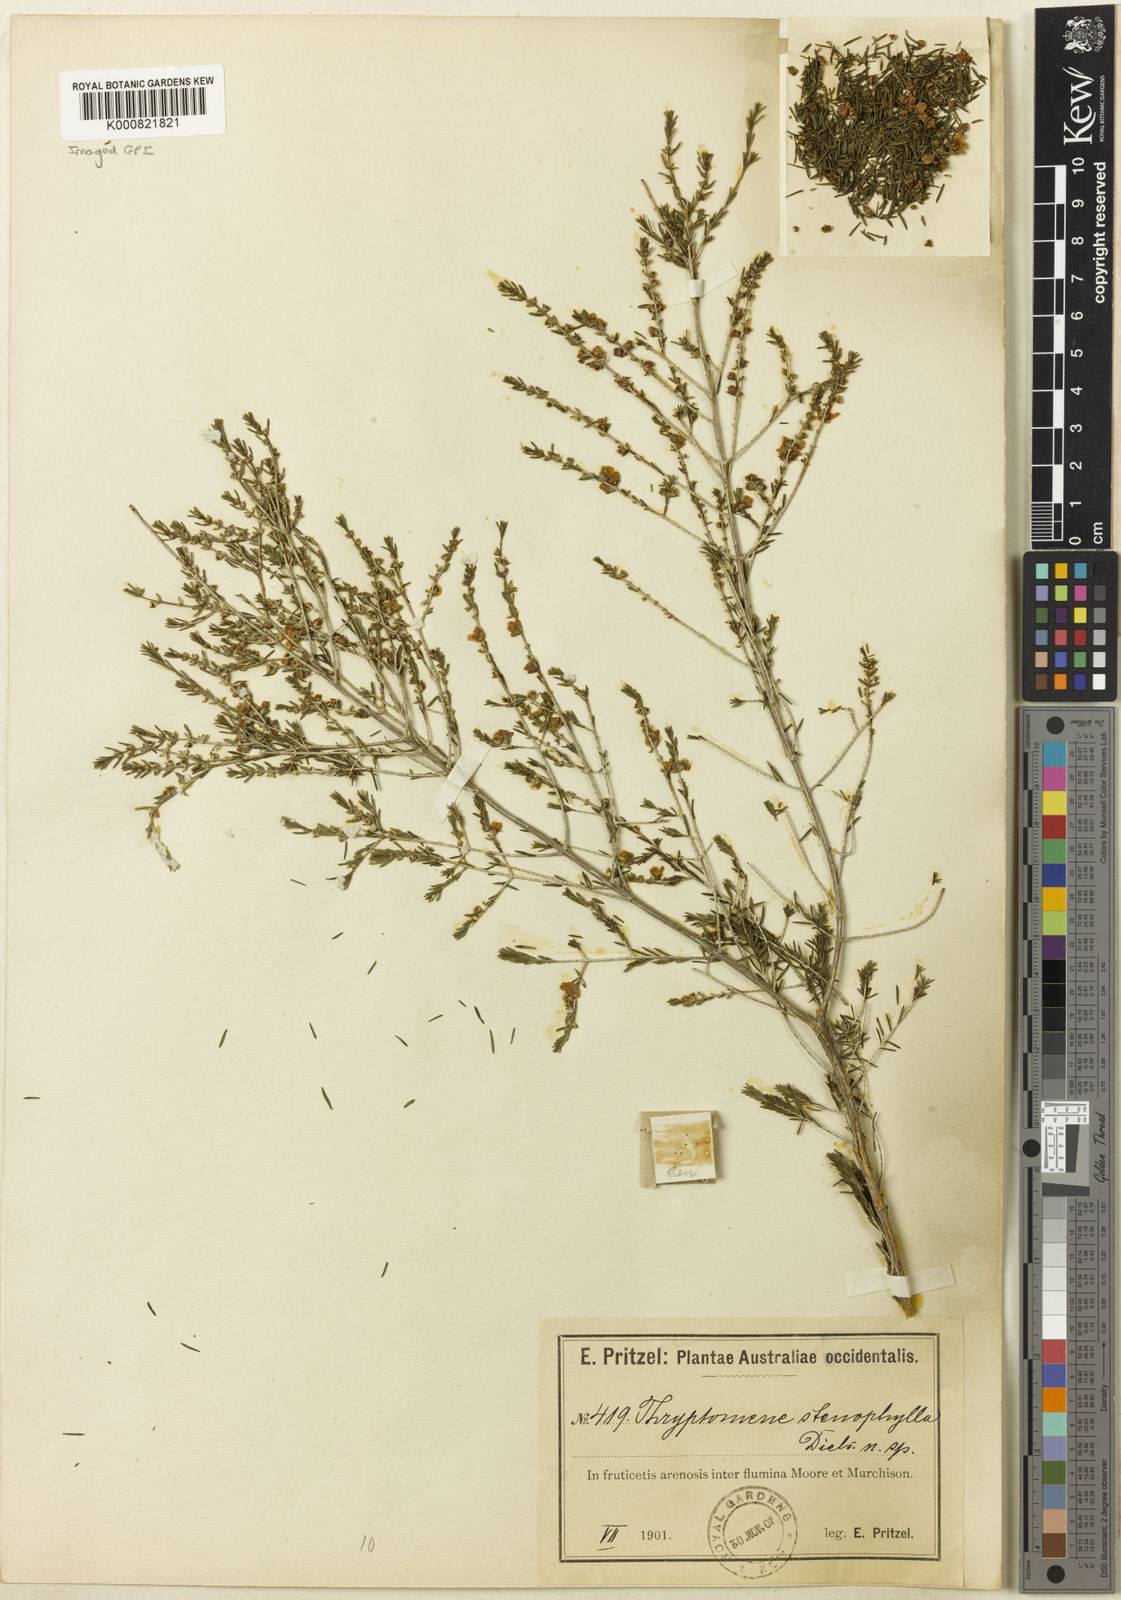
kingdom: Plantae
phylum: Tracheophyta
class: Magnoliopsida
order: Myrtales
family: Myrtaceae
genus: Thryptomene
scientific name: Thryptomene
